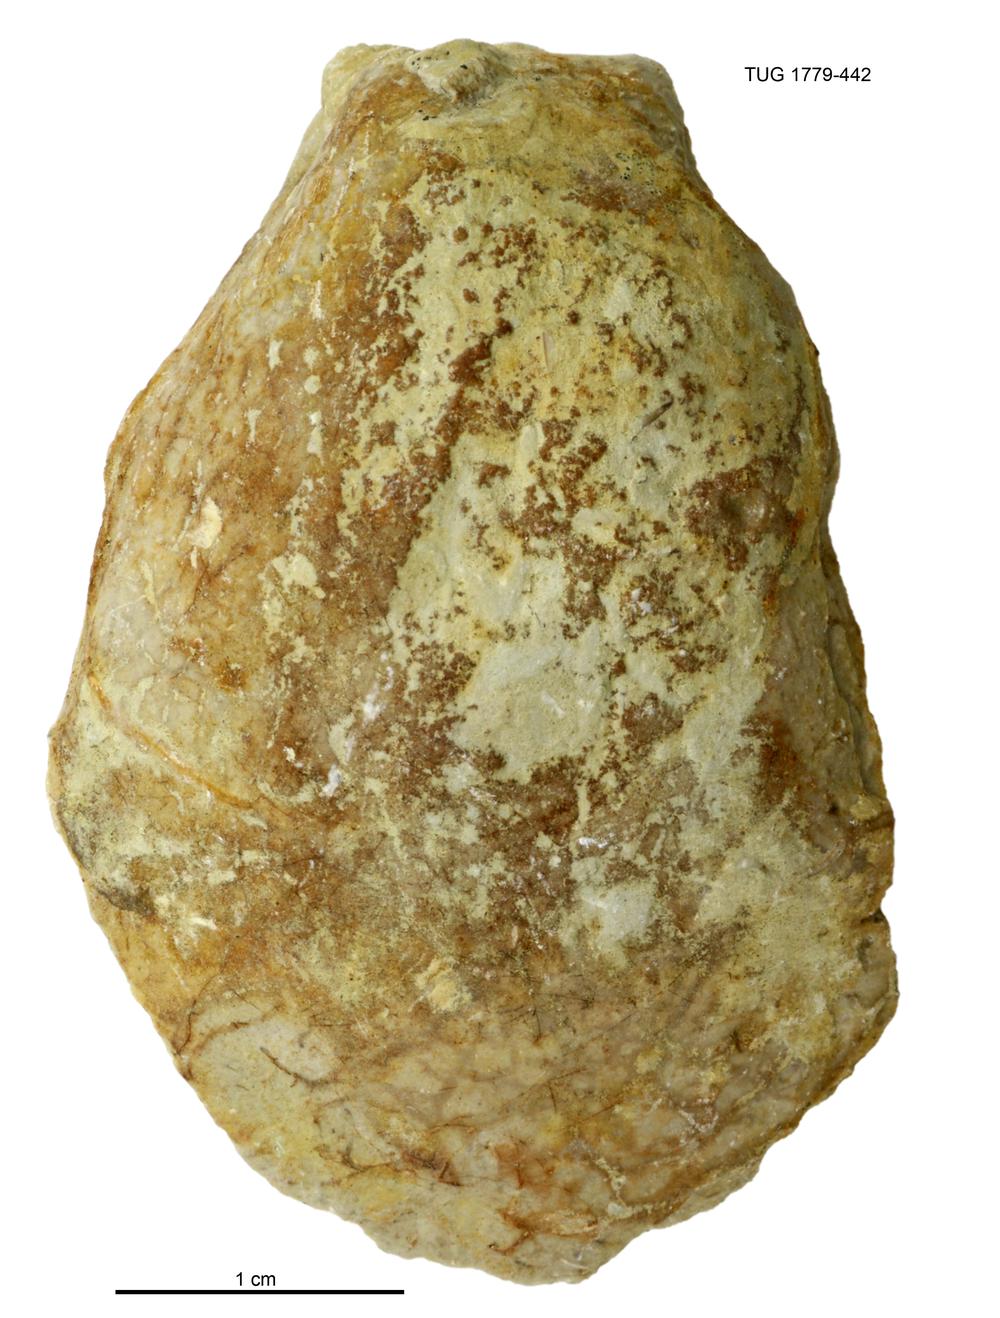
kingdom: Animalia
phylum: Mollusca
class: Bivalvia
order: Modiomorphida
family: Modiomorphidae
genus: Modiolopsis
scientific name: Modiolopsis
